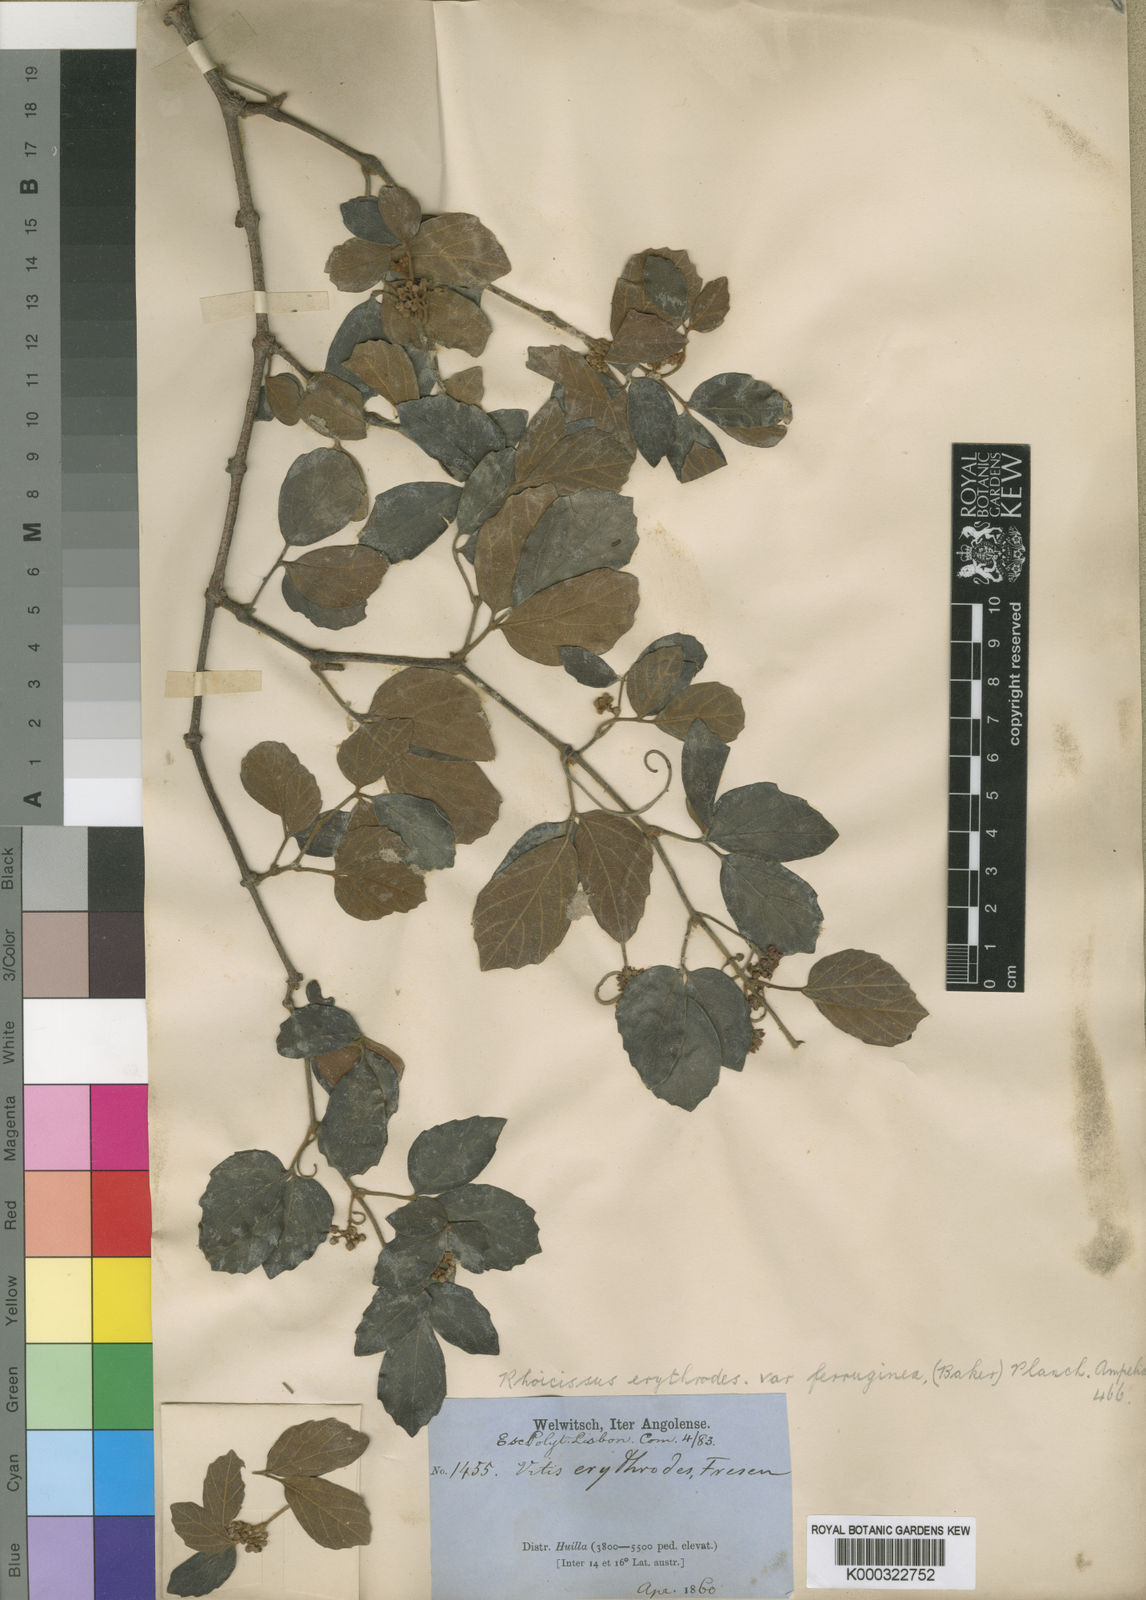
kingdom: Plantae
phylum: Tracheophyta
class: Magnoliopsida
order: Vitales
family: Vitaceae
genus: Rhoicissus
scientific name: Rhoicissus tridentata
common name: Common forest grape
